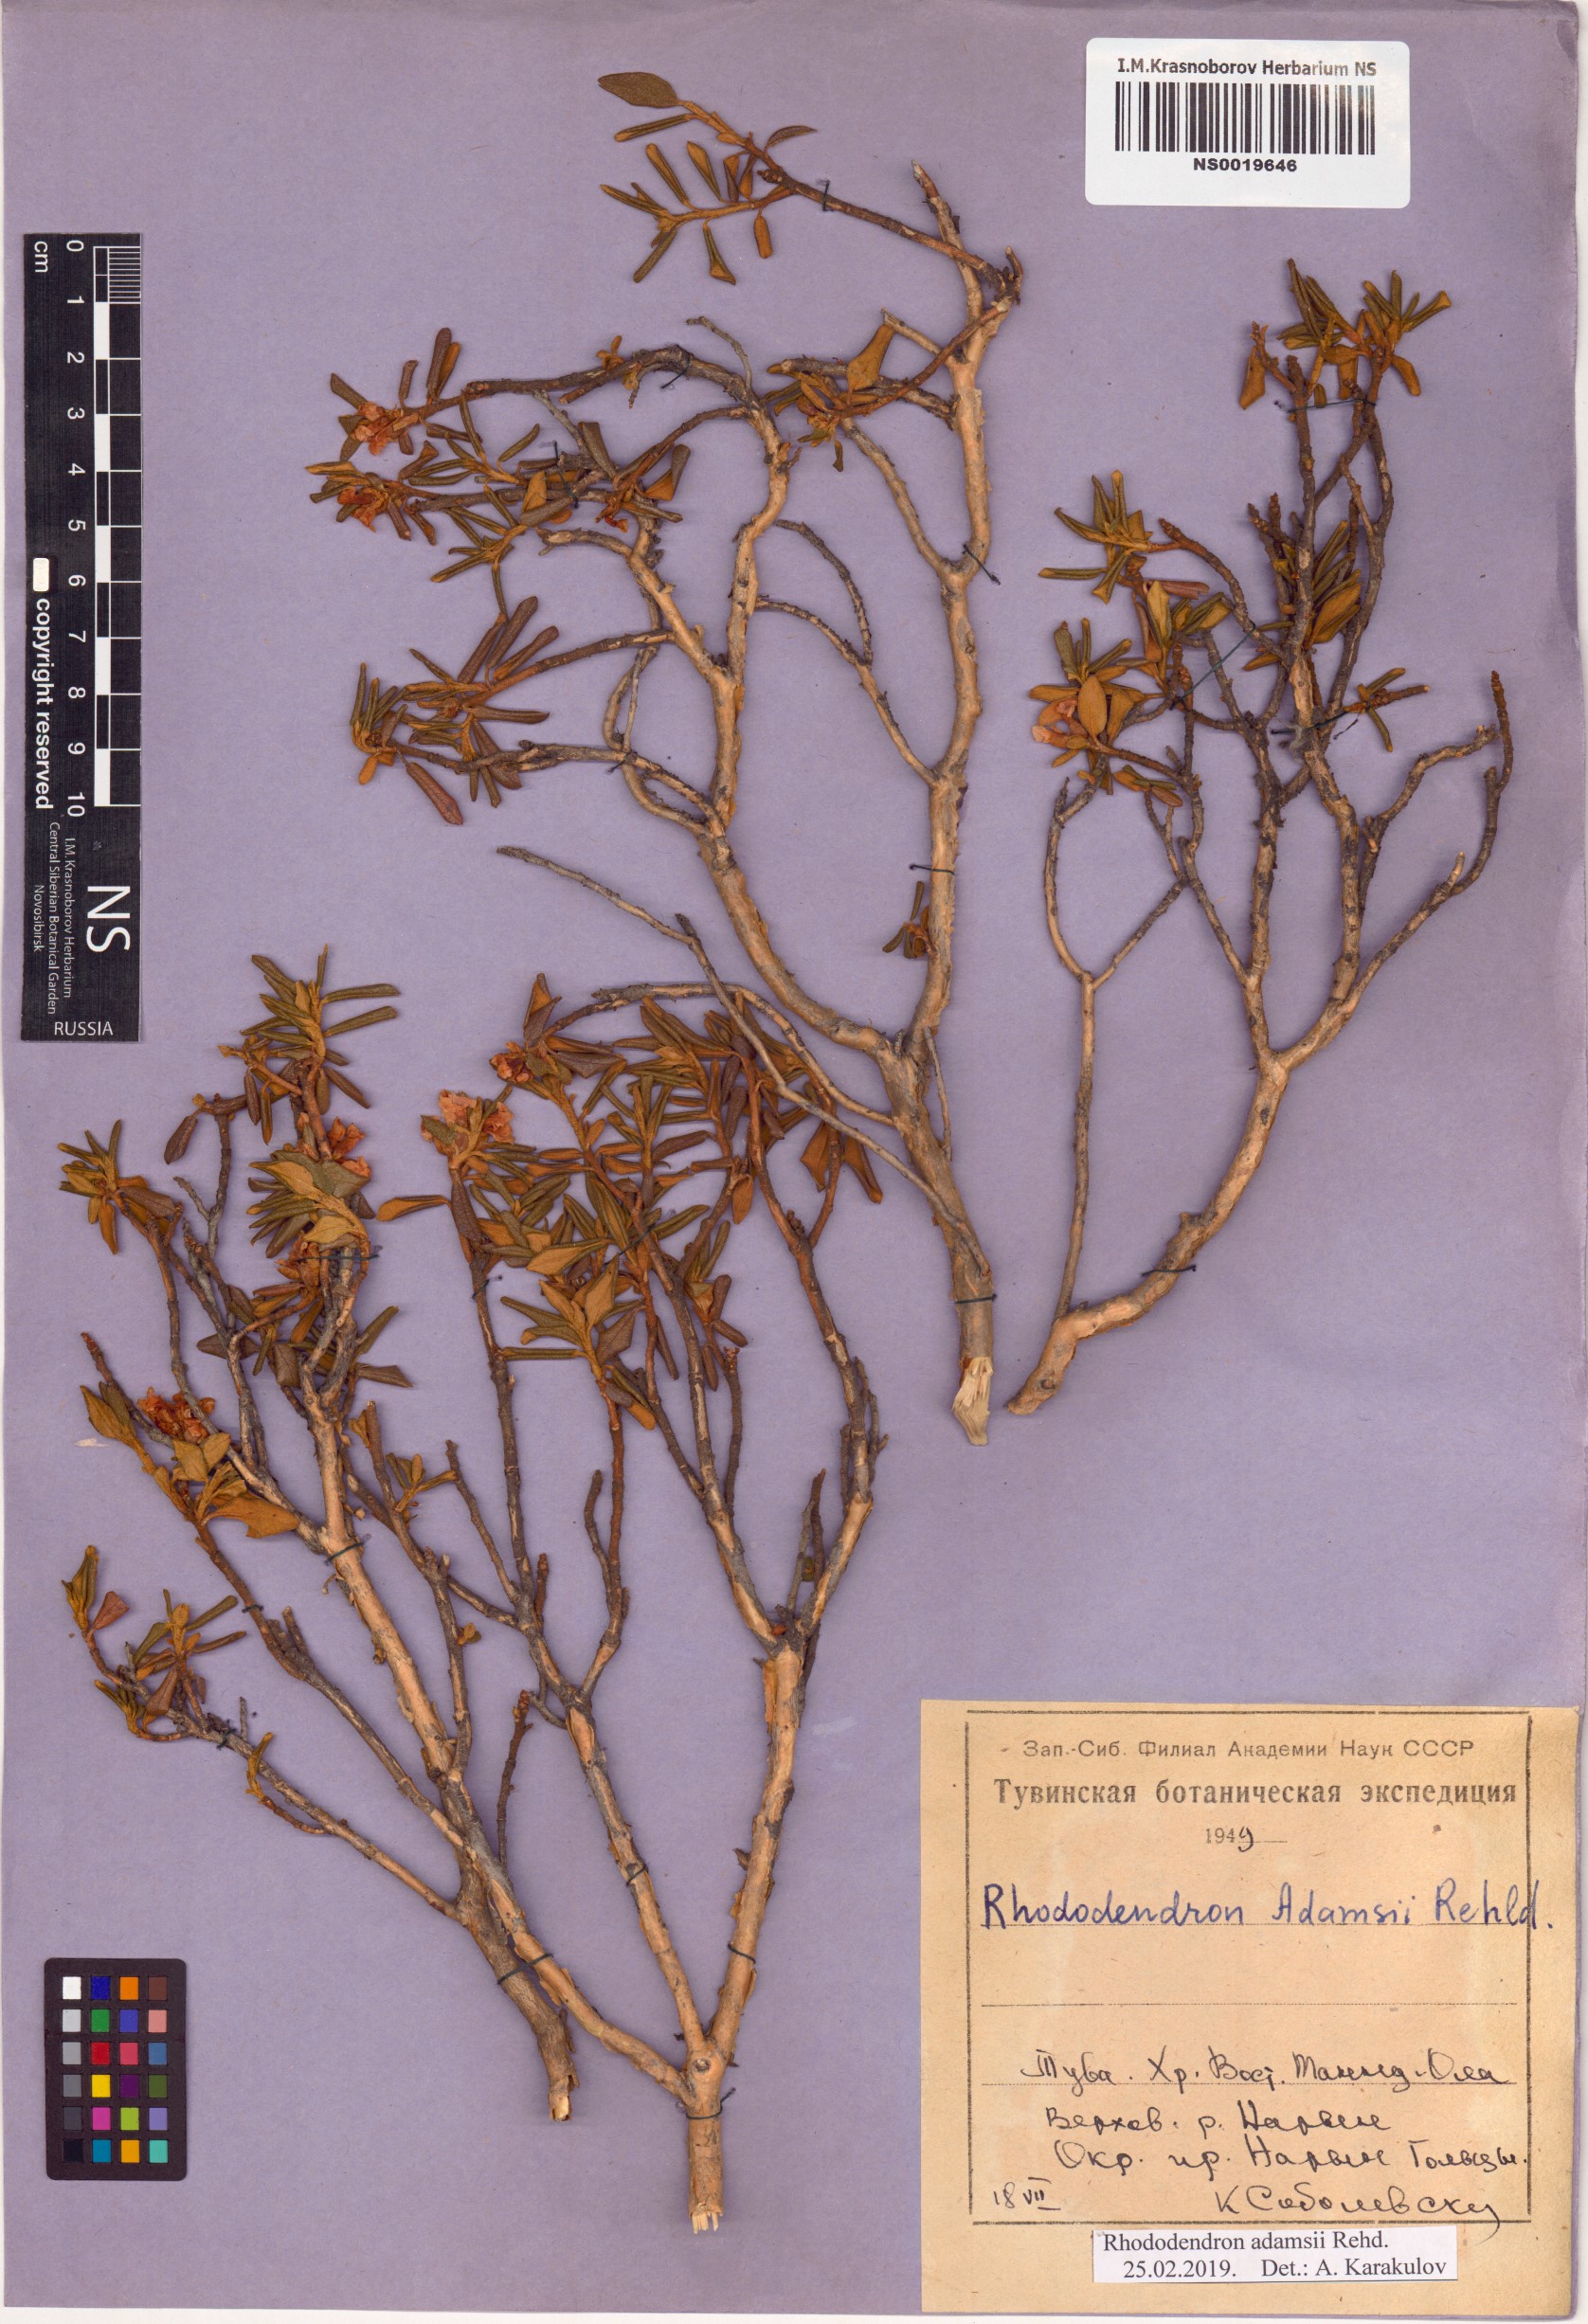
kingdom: Plantae
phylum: Tracheophyta
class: Magnoliopsida
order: Ericales
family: Ericaceae
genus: Rhododendron
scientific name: Rhododendron adamsii
